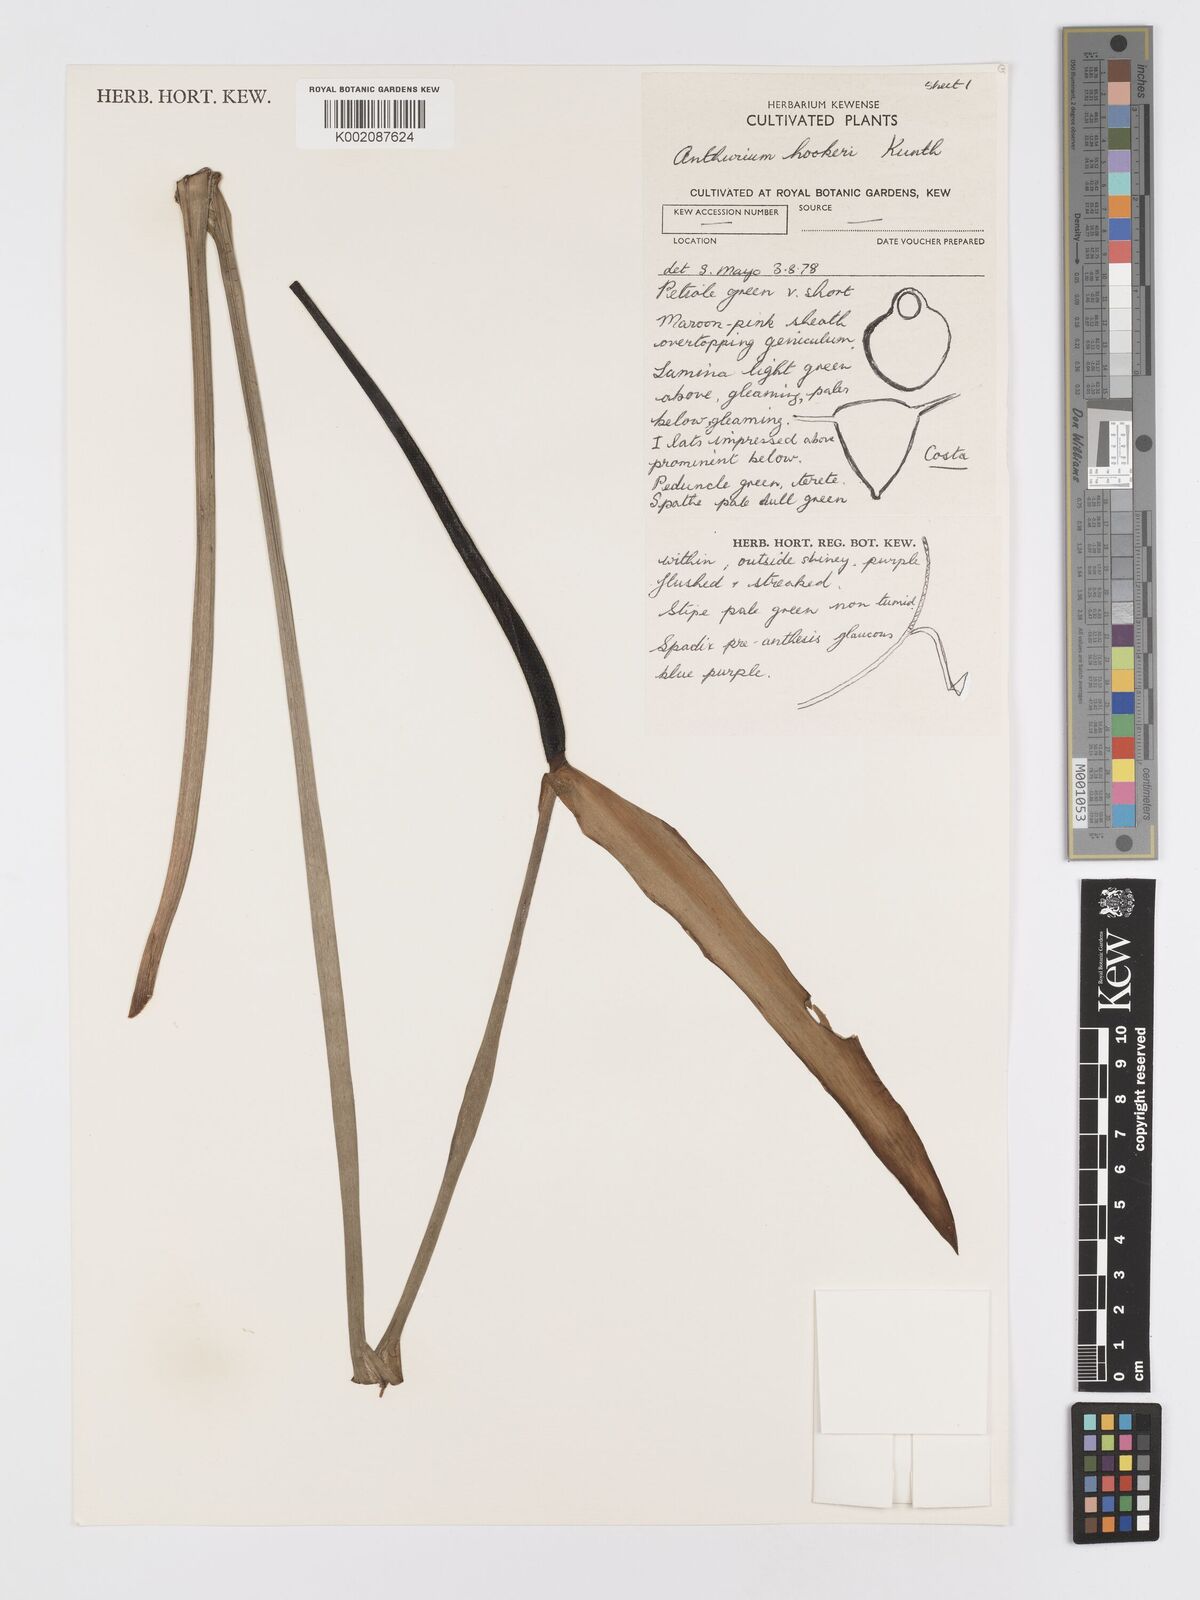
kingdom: Plantae
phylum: Tracheophyta
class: Liliopsida
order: Alismatales
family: Araceae
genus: Anthurium
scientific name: Anthurium hookeri
